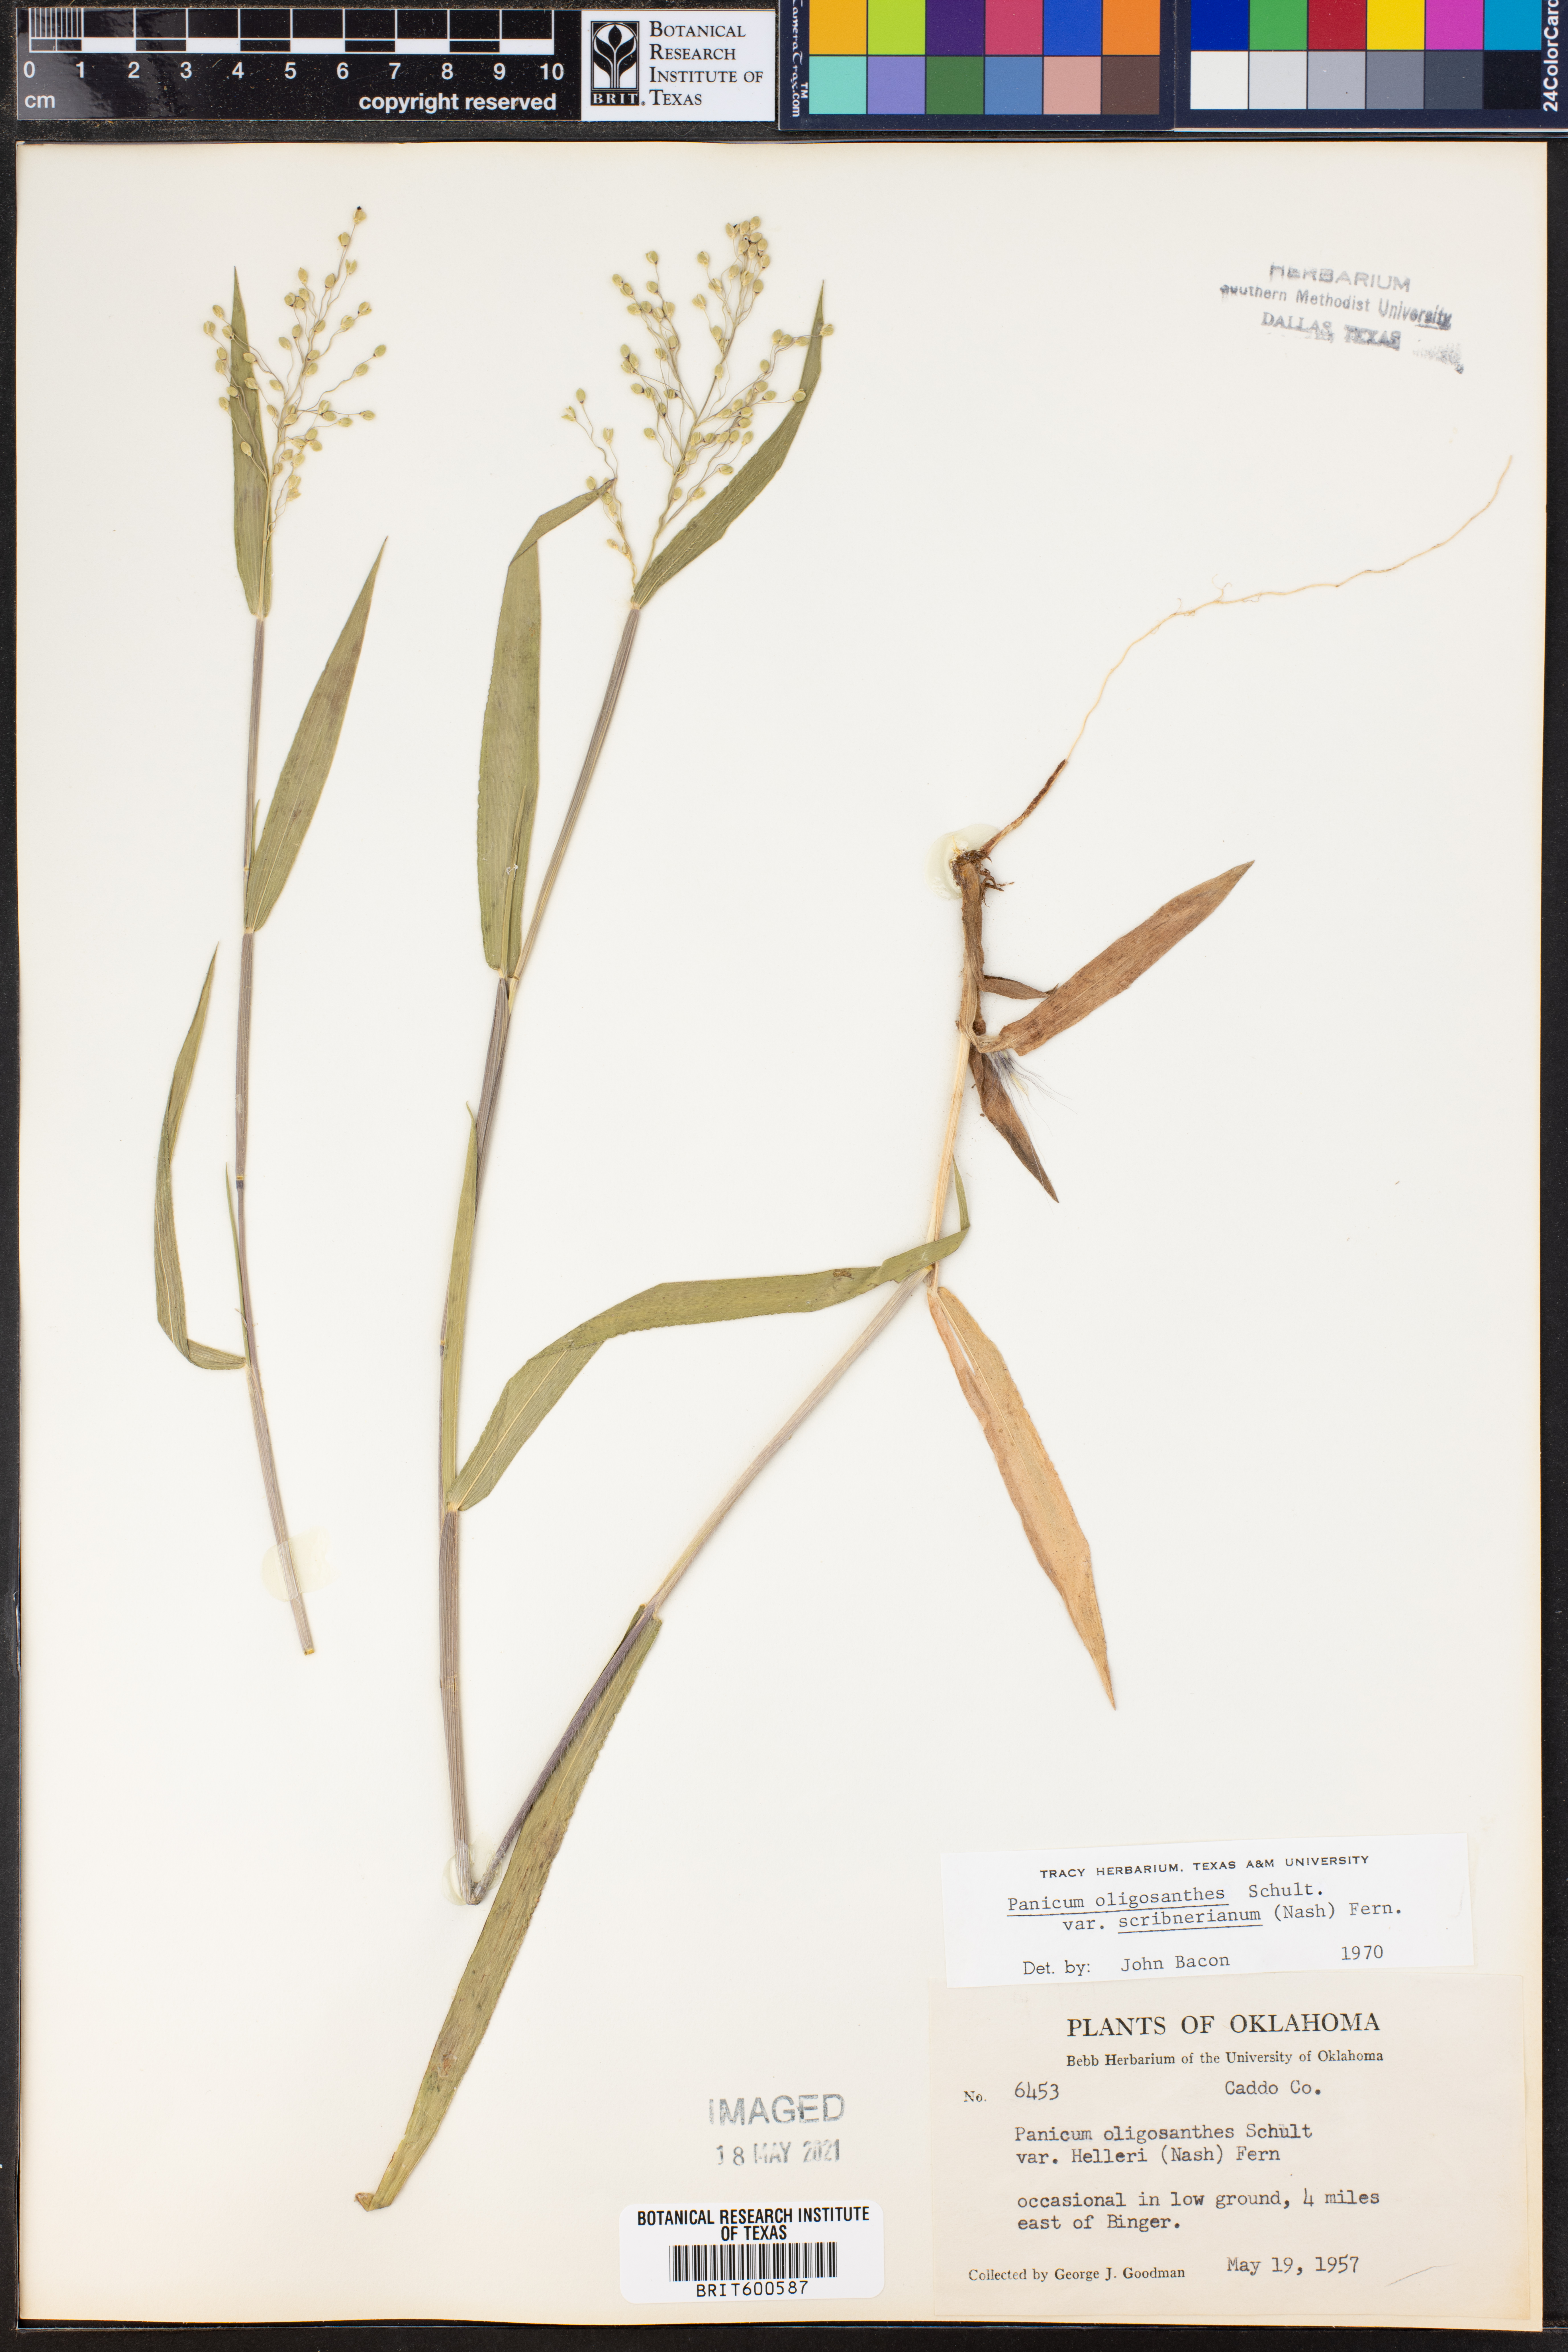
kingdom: Plantae
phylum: Tracheophyta
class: Liliopsida
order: Poales
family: Poaceae
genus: Dichanthelium
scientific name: Dichanthelium scribnerianum
